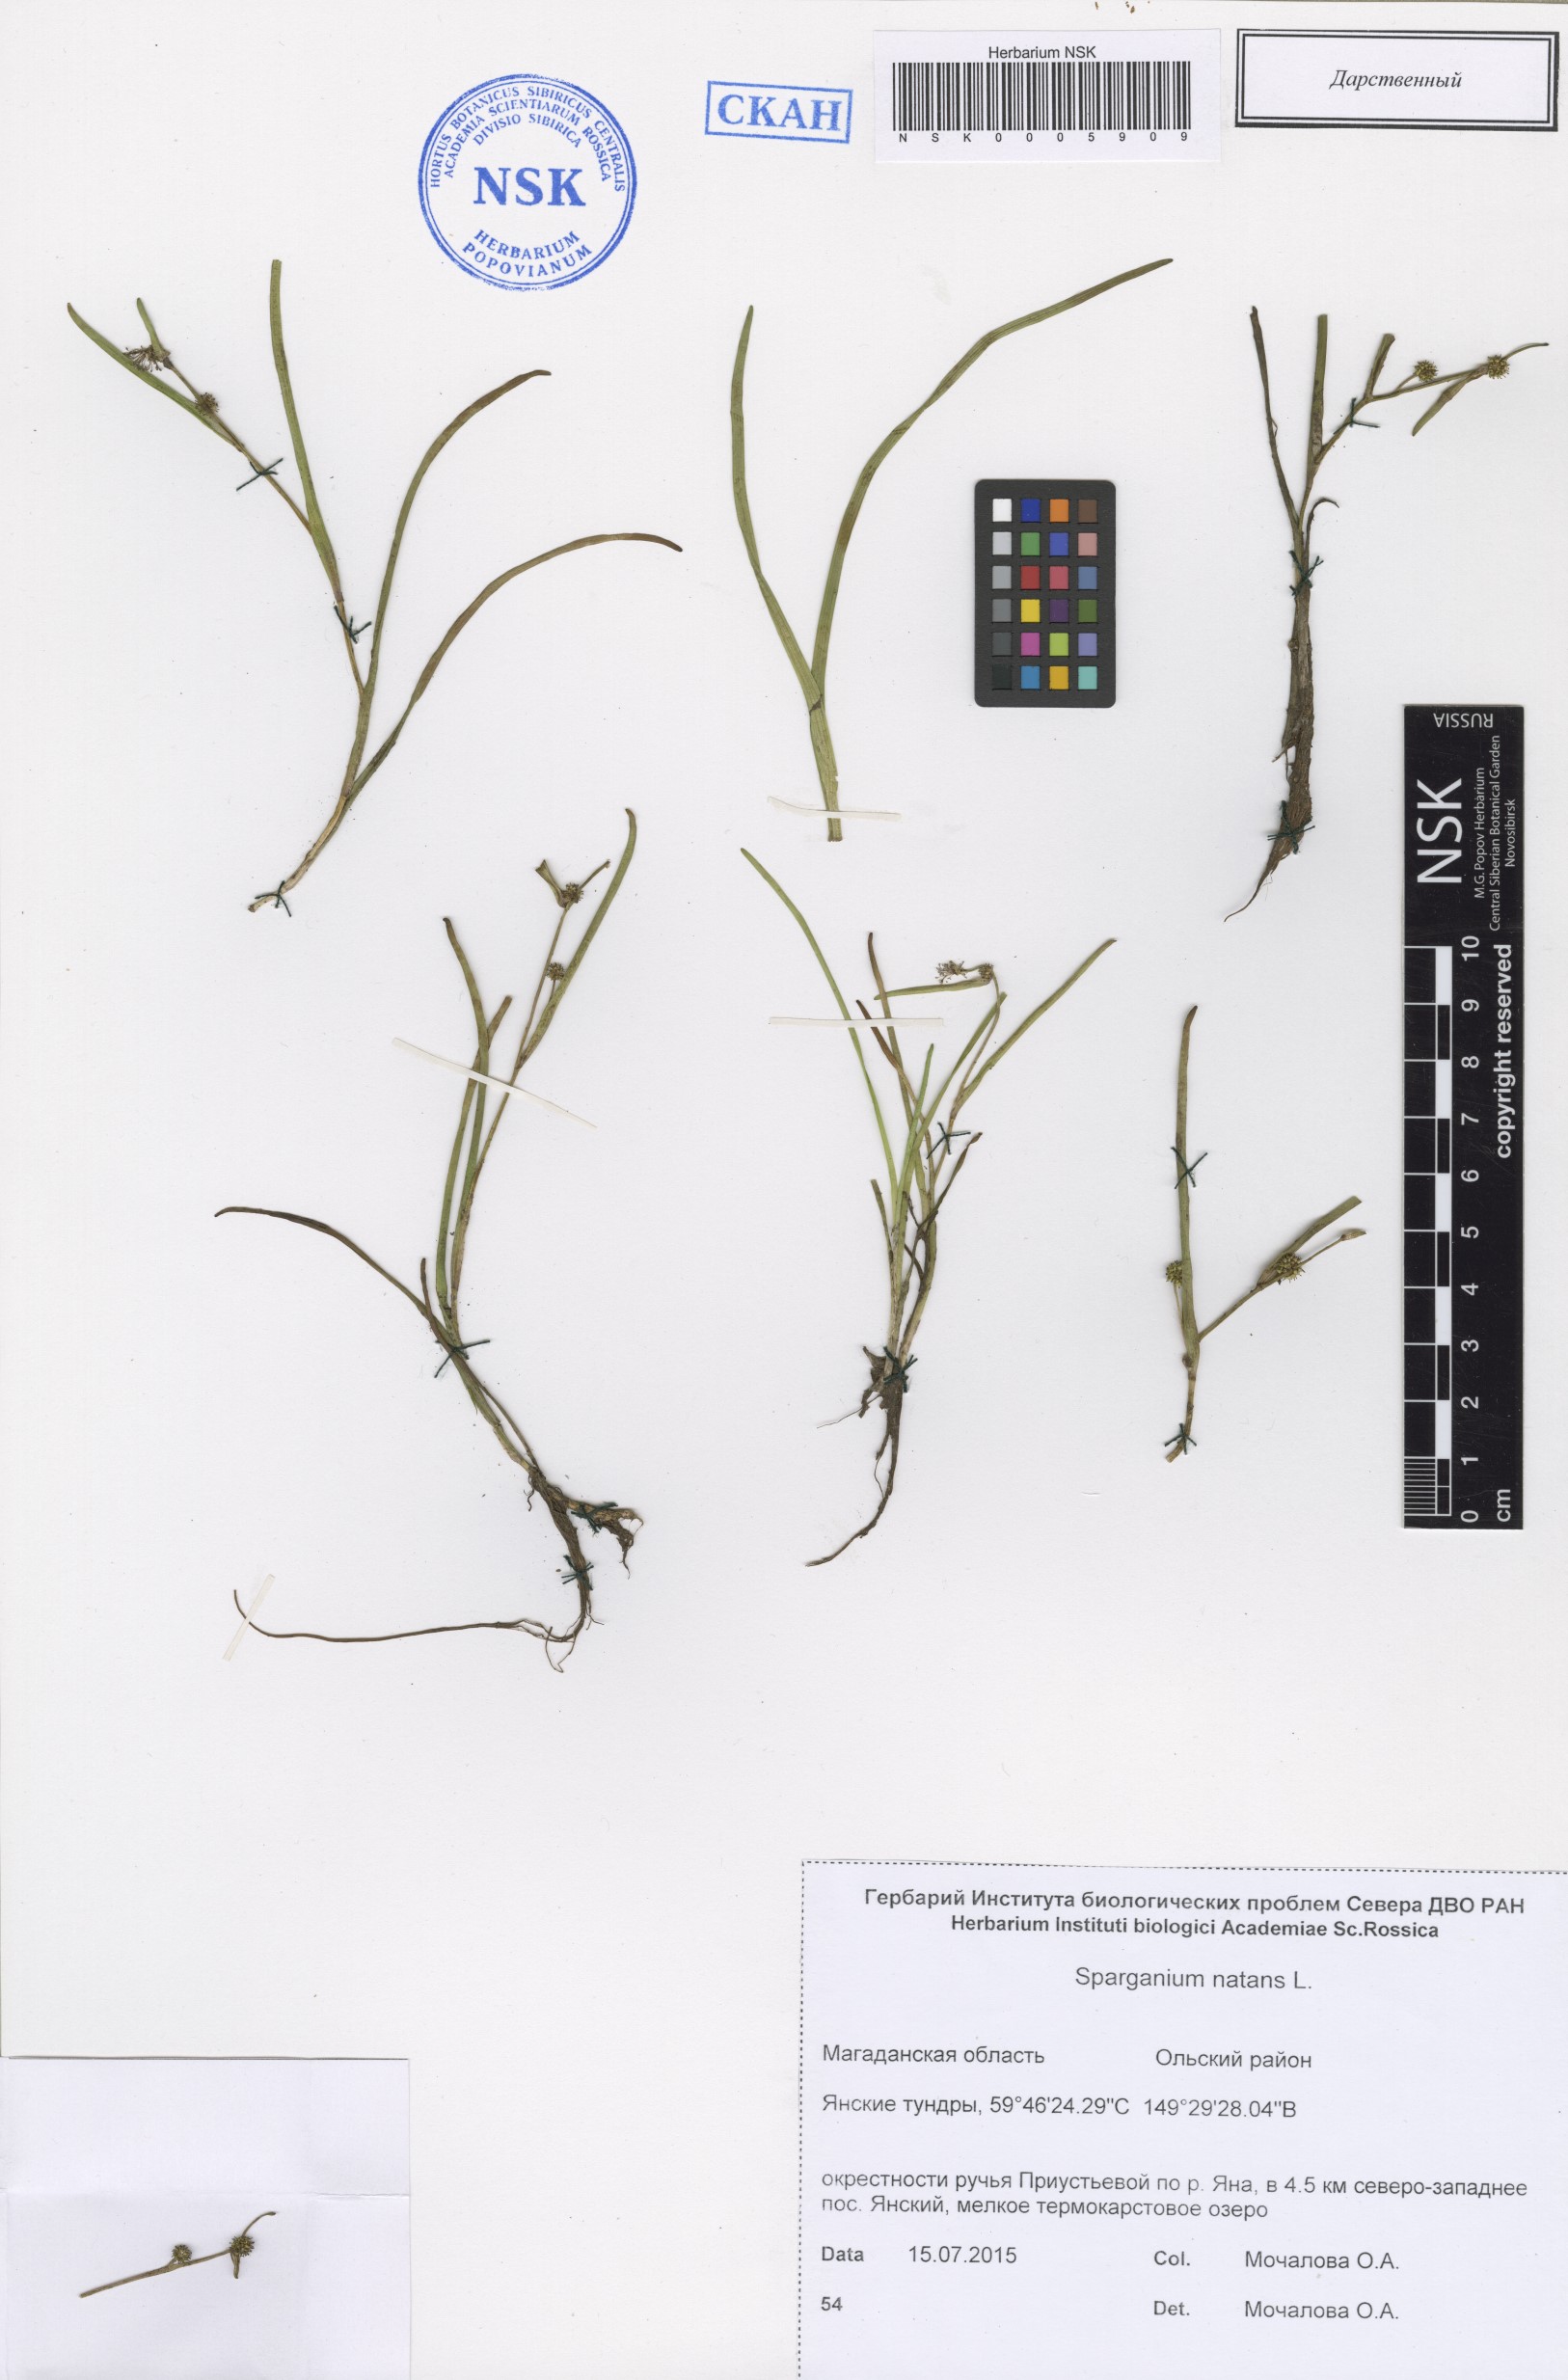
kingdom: Plantae
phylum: Tracheophyta
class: Liliopsida
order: Poales
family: Typhaceae
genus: Sparganium
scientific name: Sparganium natans
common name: Least bur-reed
